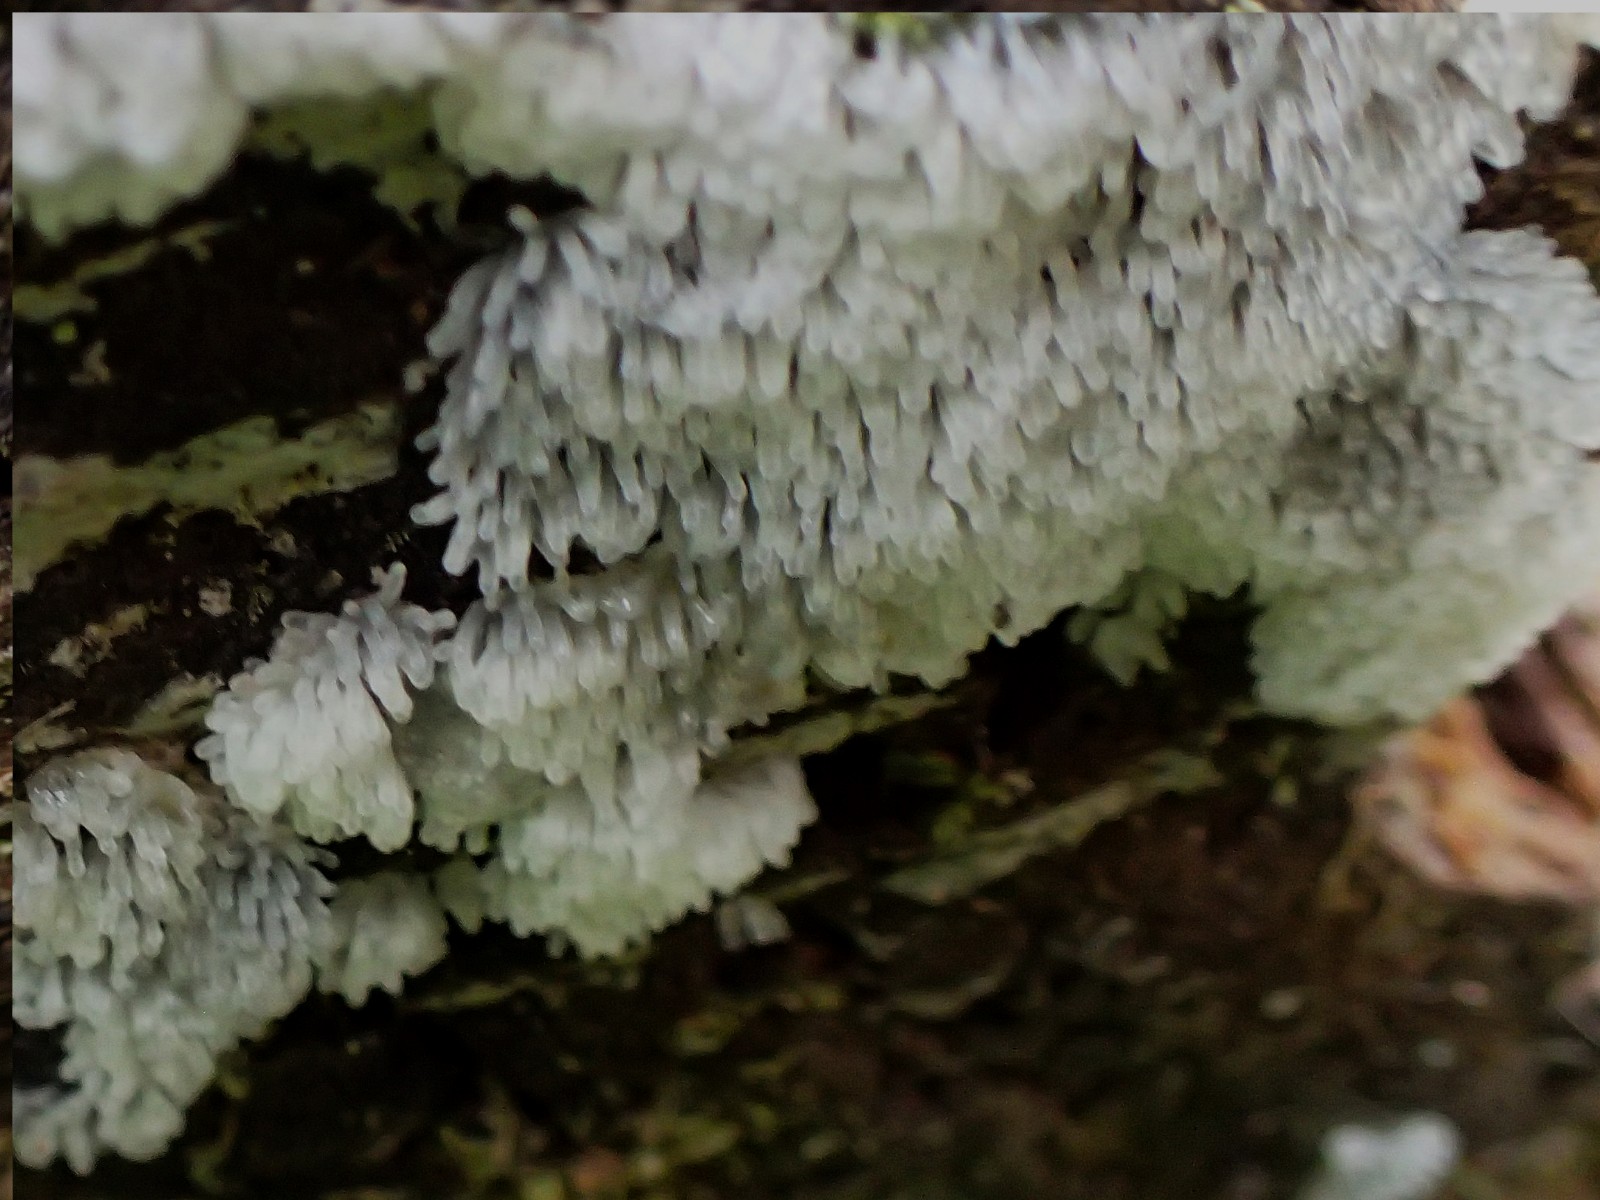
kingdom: Protozoa
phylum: Mycetozoa
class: Protosteliomycetes
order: Ceratiomyxales
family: Ceratiomyxaceae
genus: Ceratiomyxa
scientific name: Ceratiomyxa fruticulosa
